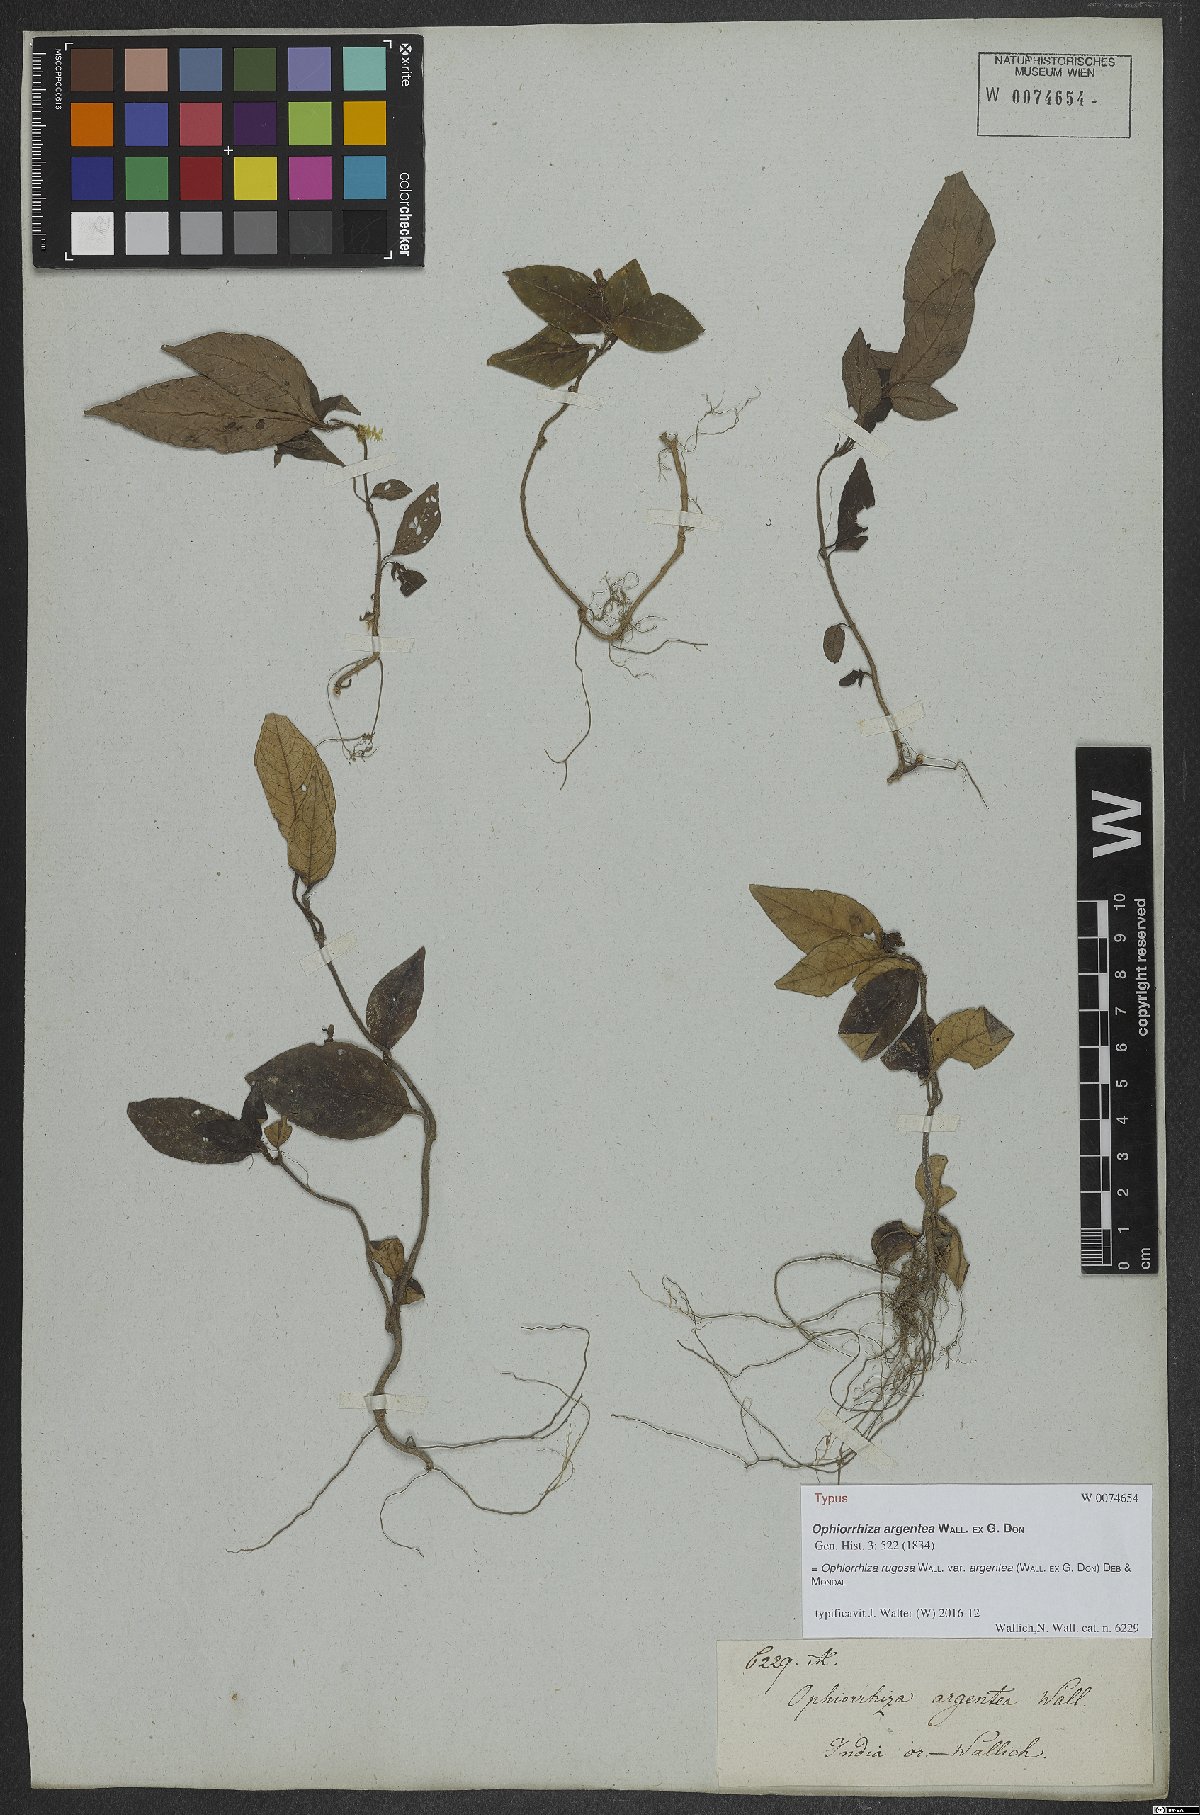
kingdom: Plantae
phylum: Tracheophyta
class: Magnoliopsida
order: Gentianales
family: Rubiaceae
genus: Ophiorrhiza
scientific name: Ophiorrhiza rugosa
